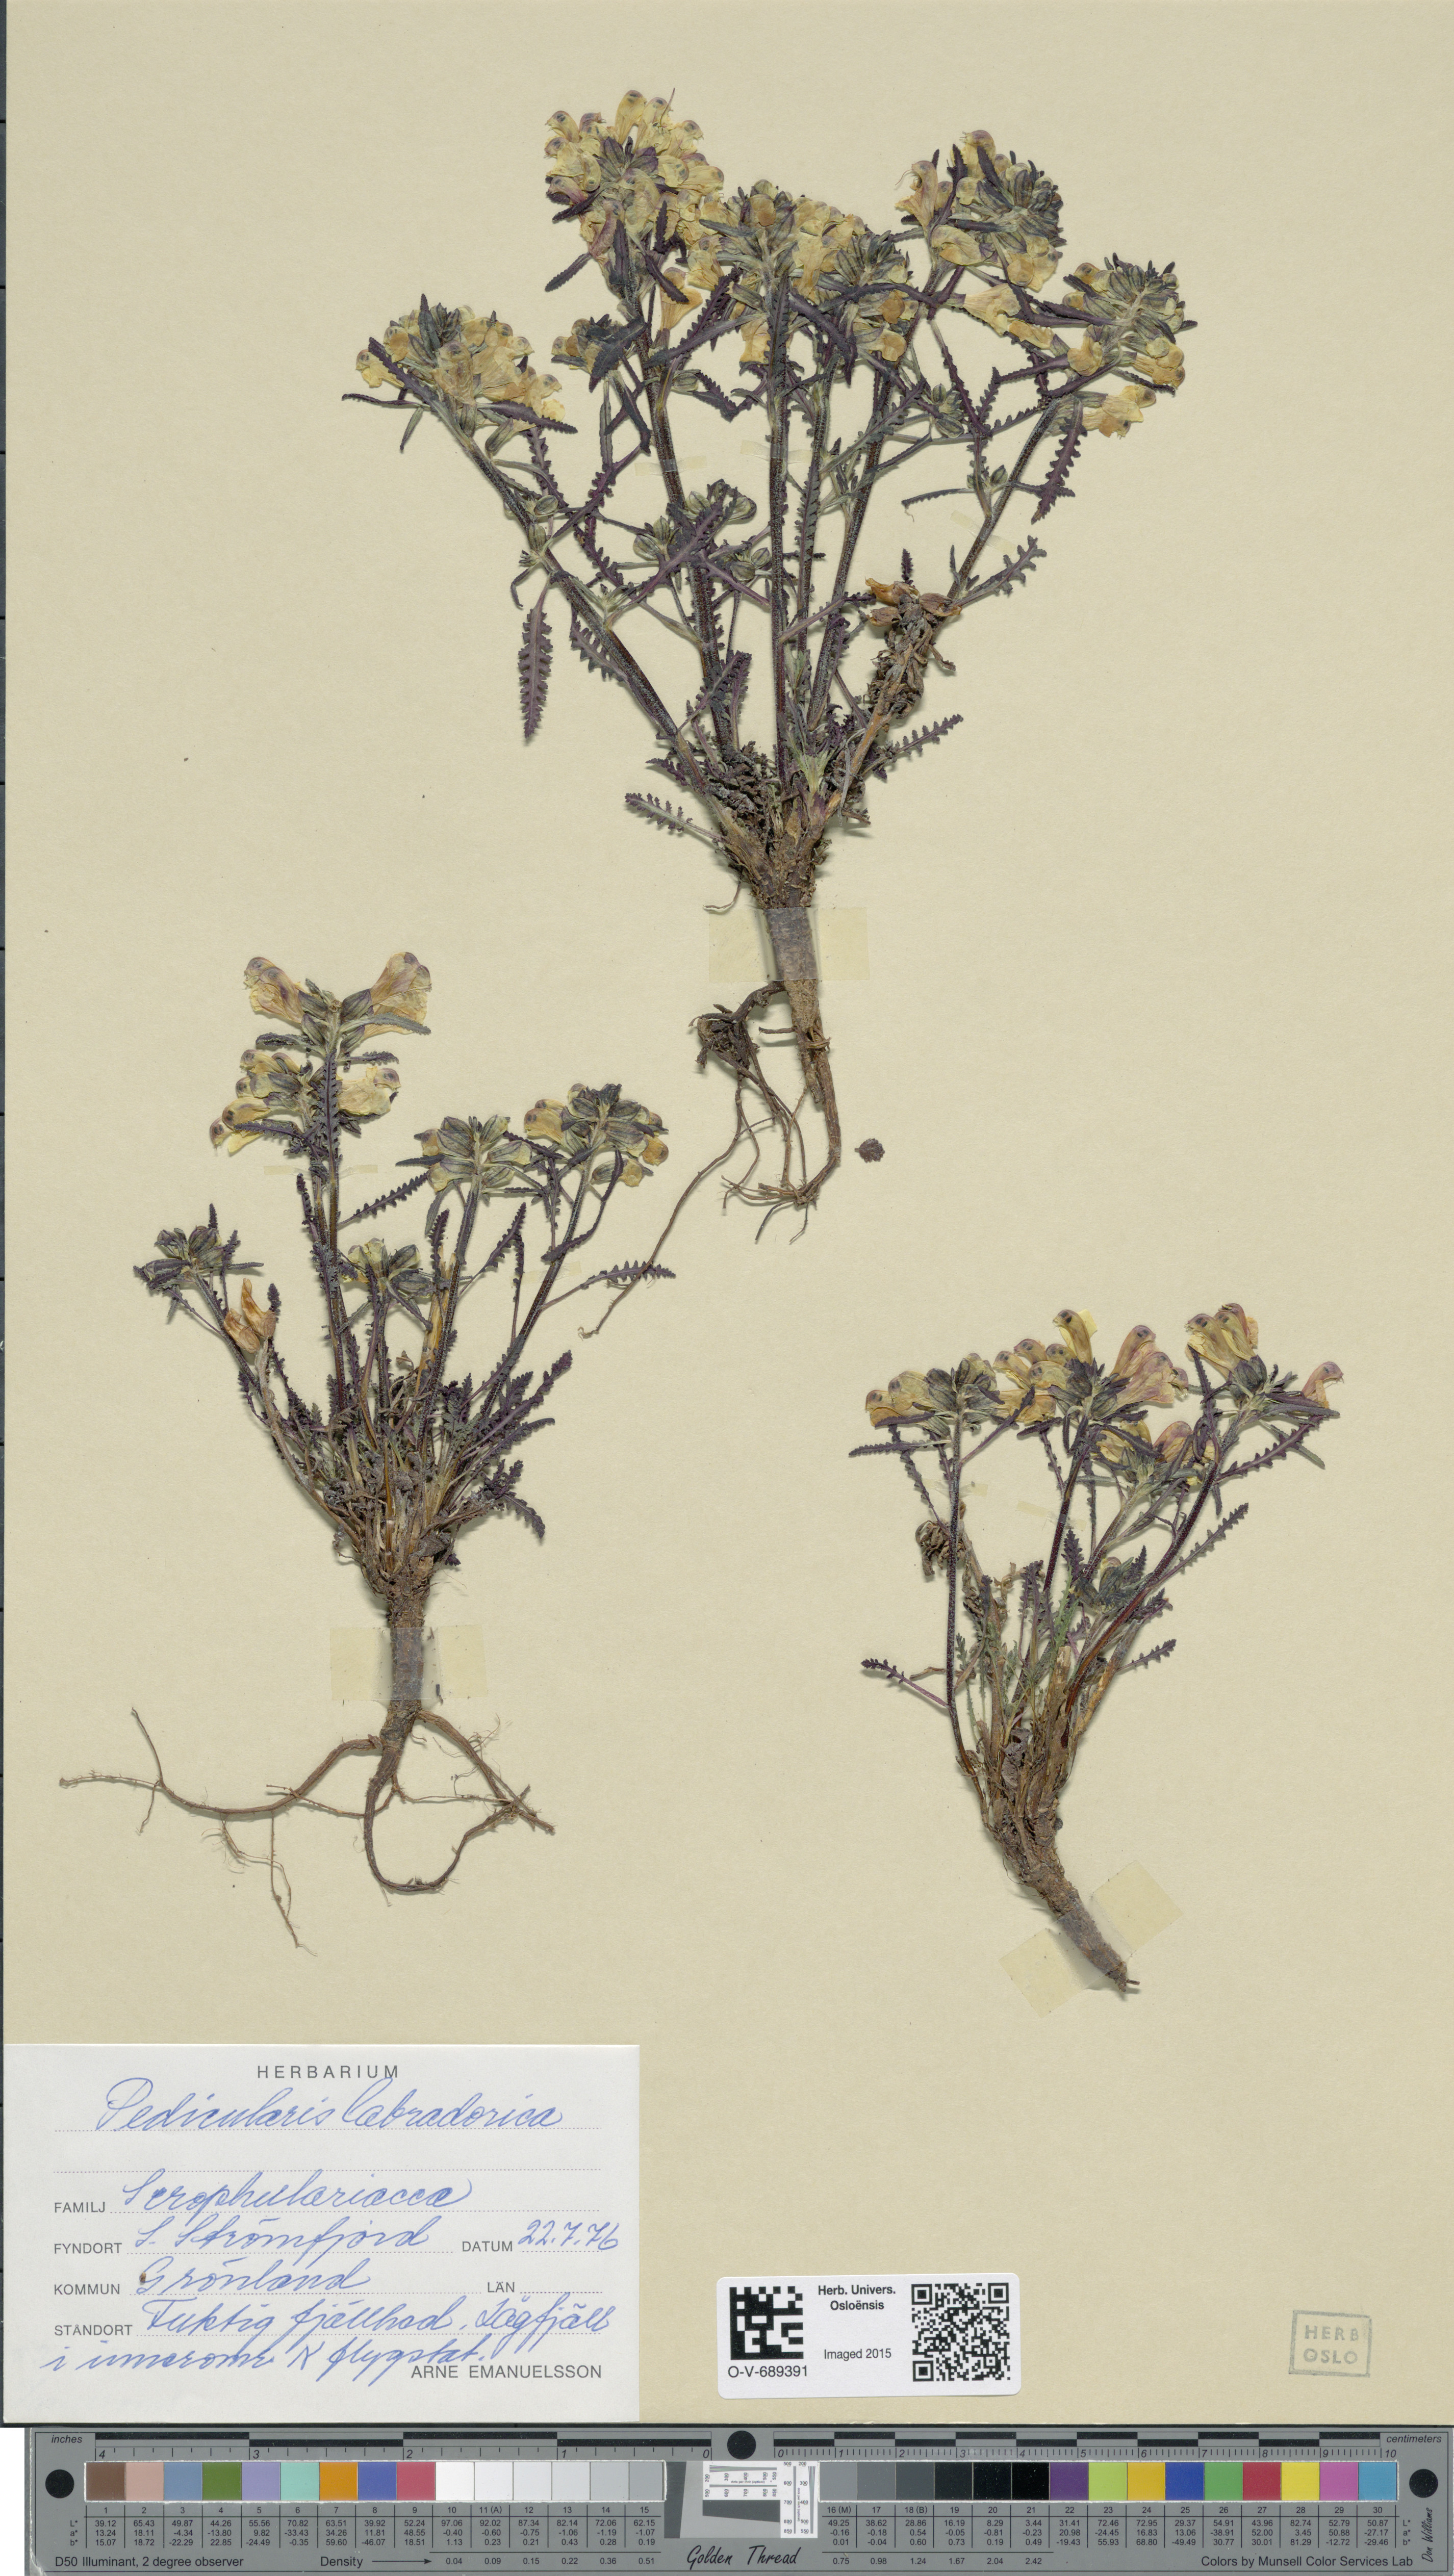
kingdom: Plantae
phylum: Tracheophyta
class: Magnoliopsida
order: Lamiales
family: Orobanchaceae
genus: Pedicularis
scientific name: Pedicularis labradorica
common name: Labrador lousewort
